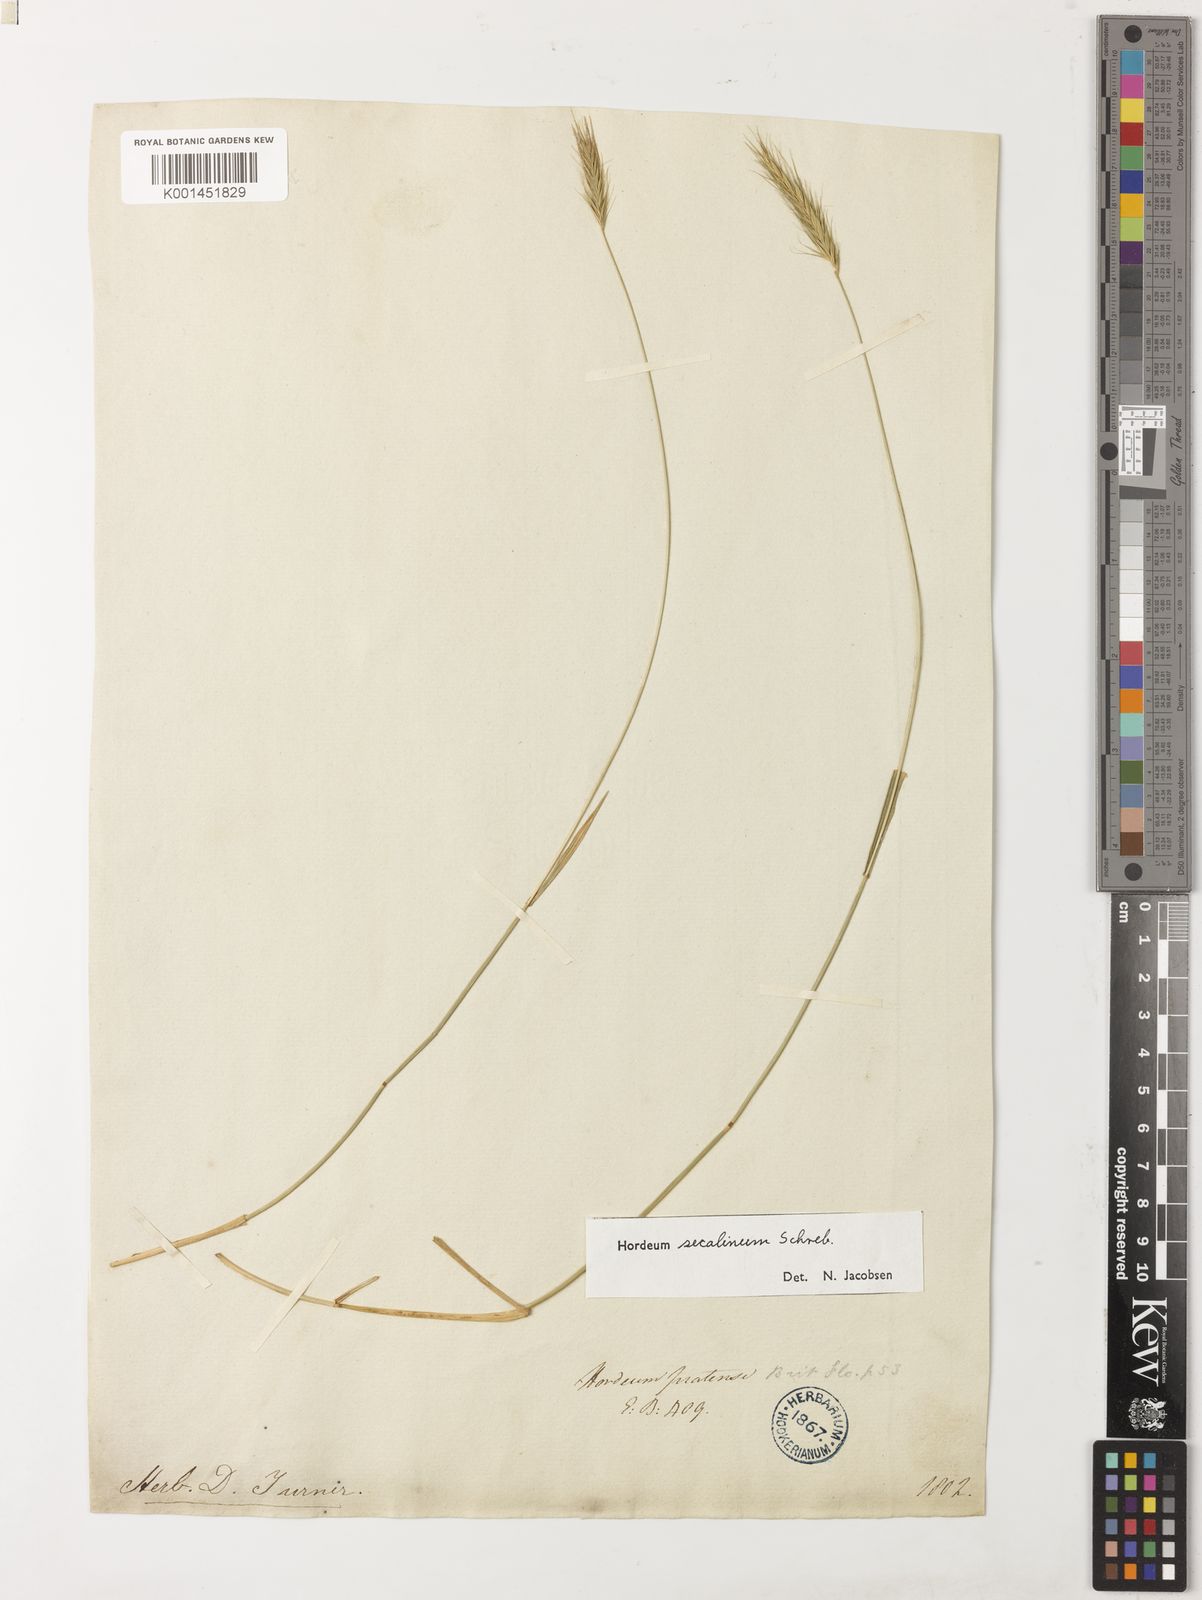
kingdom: Plantae
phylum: Tracheophyta
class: Liliopsida
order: Poales
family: Poaceae
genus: Hordeum
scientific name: Hordeum secalinum
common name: Meadow barley
